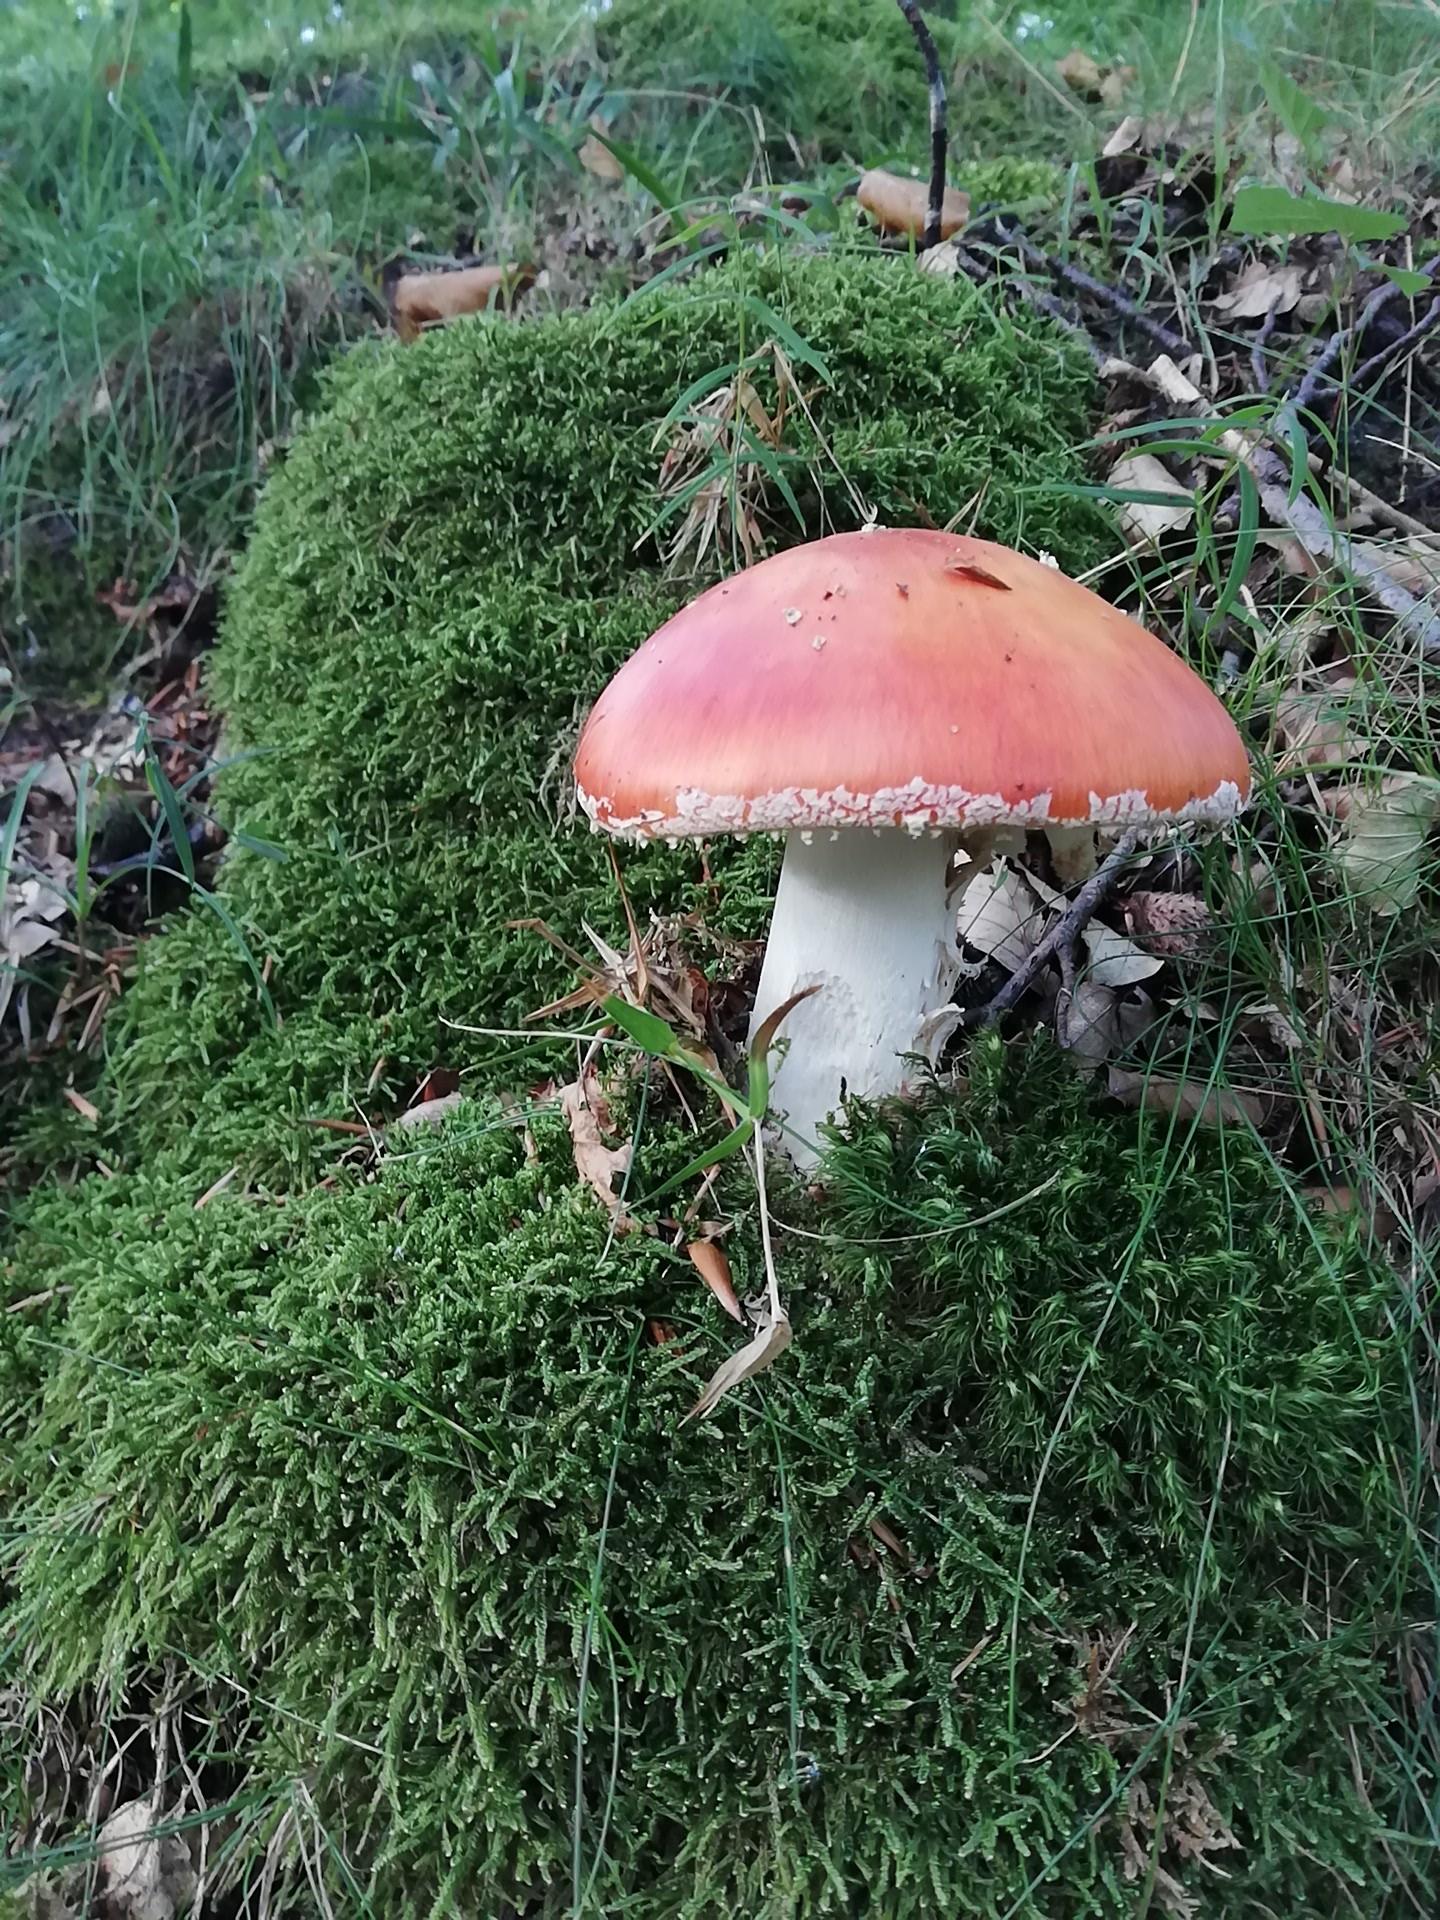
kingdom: Fungi
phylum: Basidiomycota
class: Agaricomycetes
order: Agaricales
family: Amanitaceae
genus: Amanita
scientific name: Amanita muscaria
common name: rød fluesvamp
